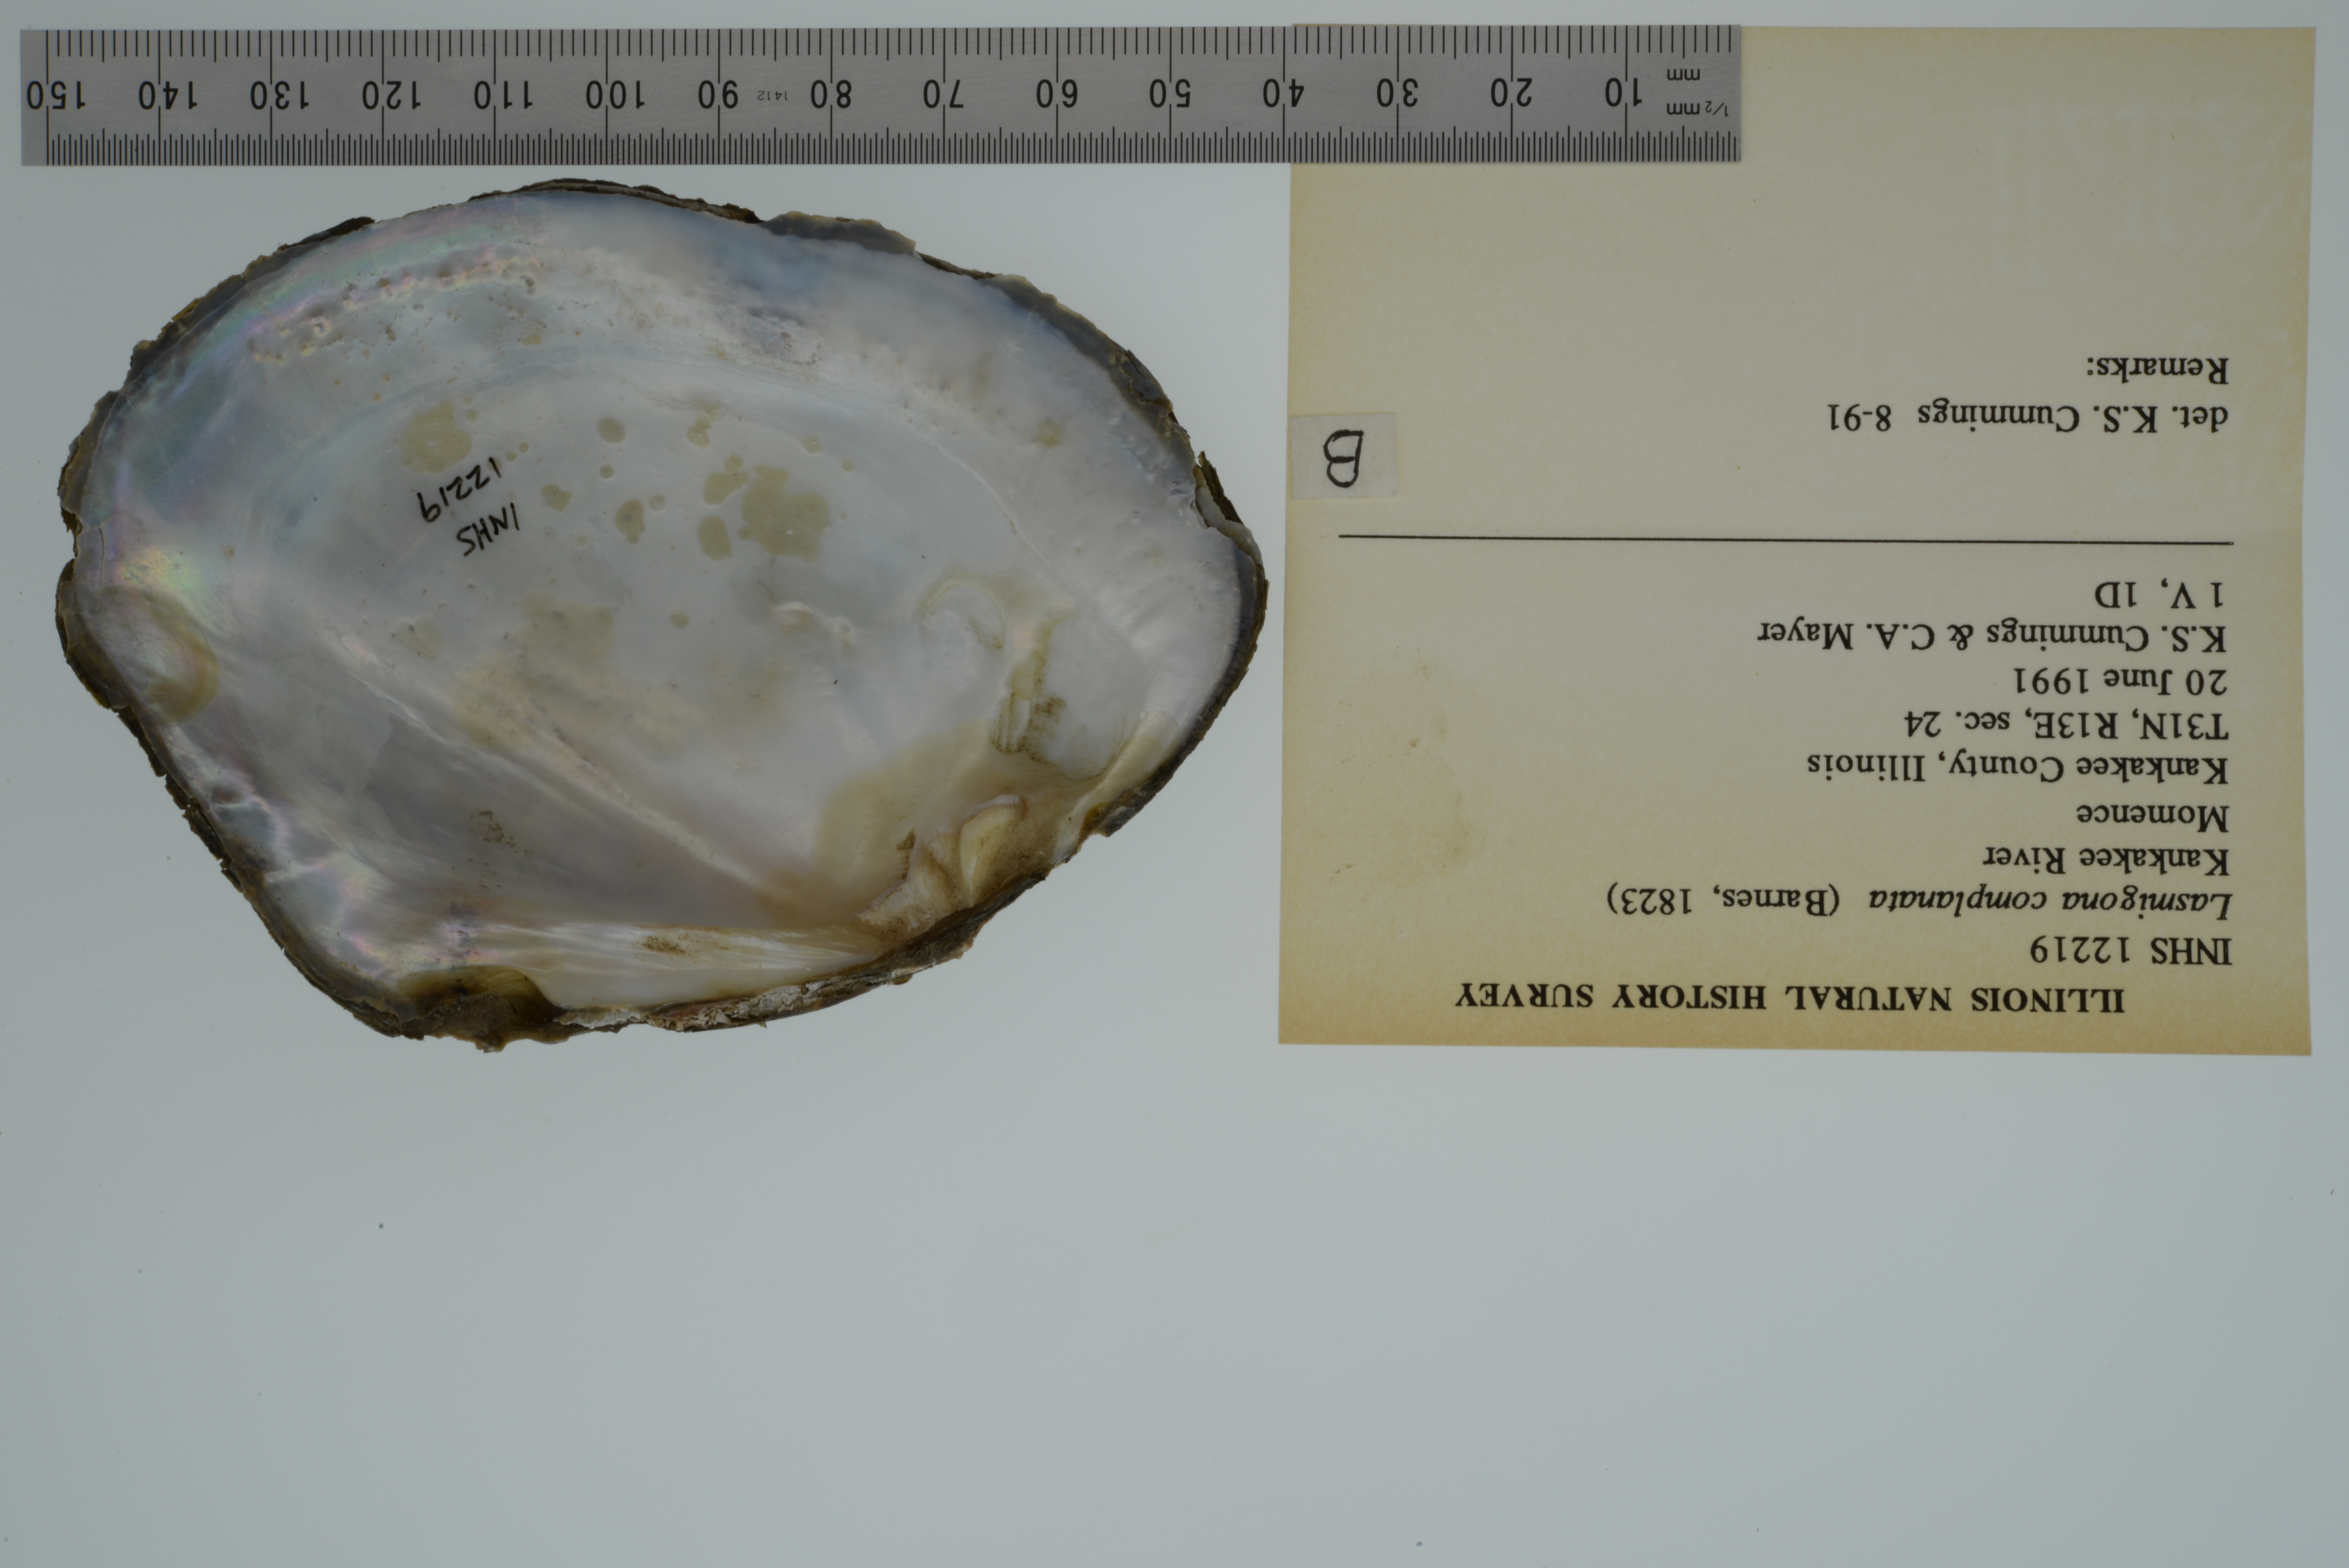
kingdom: Animalia
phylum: Mollusca
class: Bivalvia
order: Unionida
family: Unionidae
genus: Lasmigona
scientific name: Lasmigona complanata
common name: White heelsplitter
